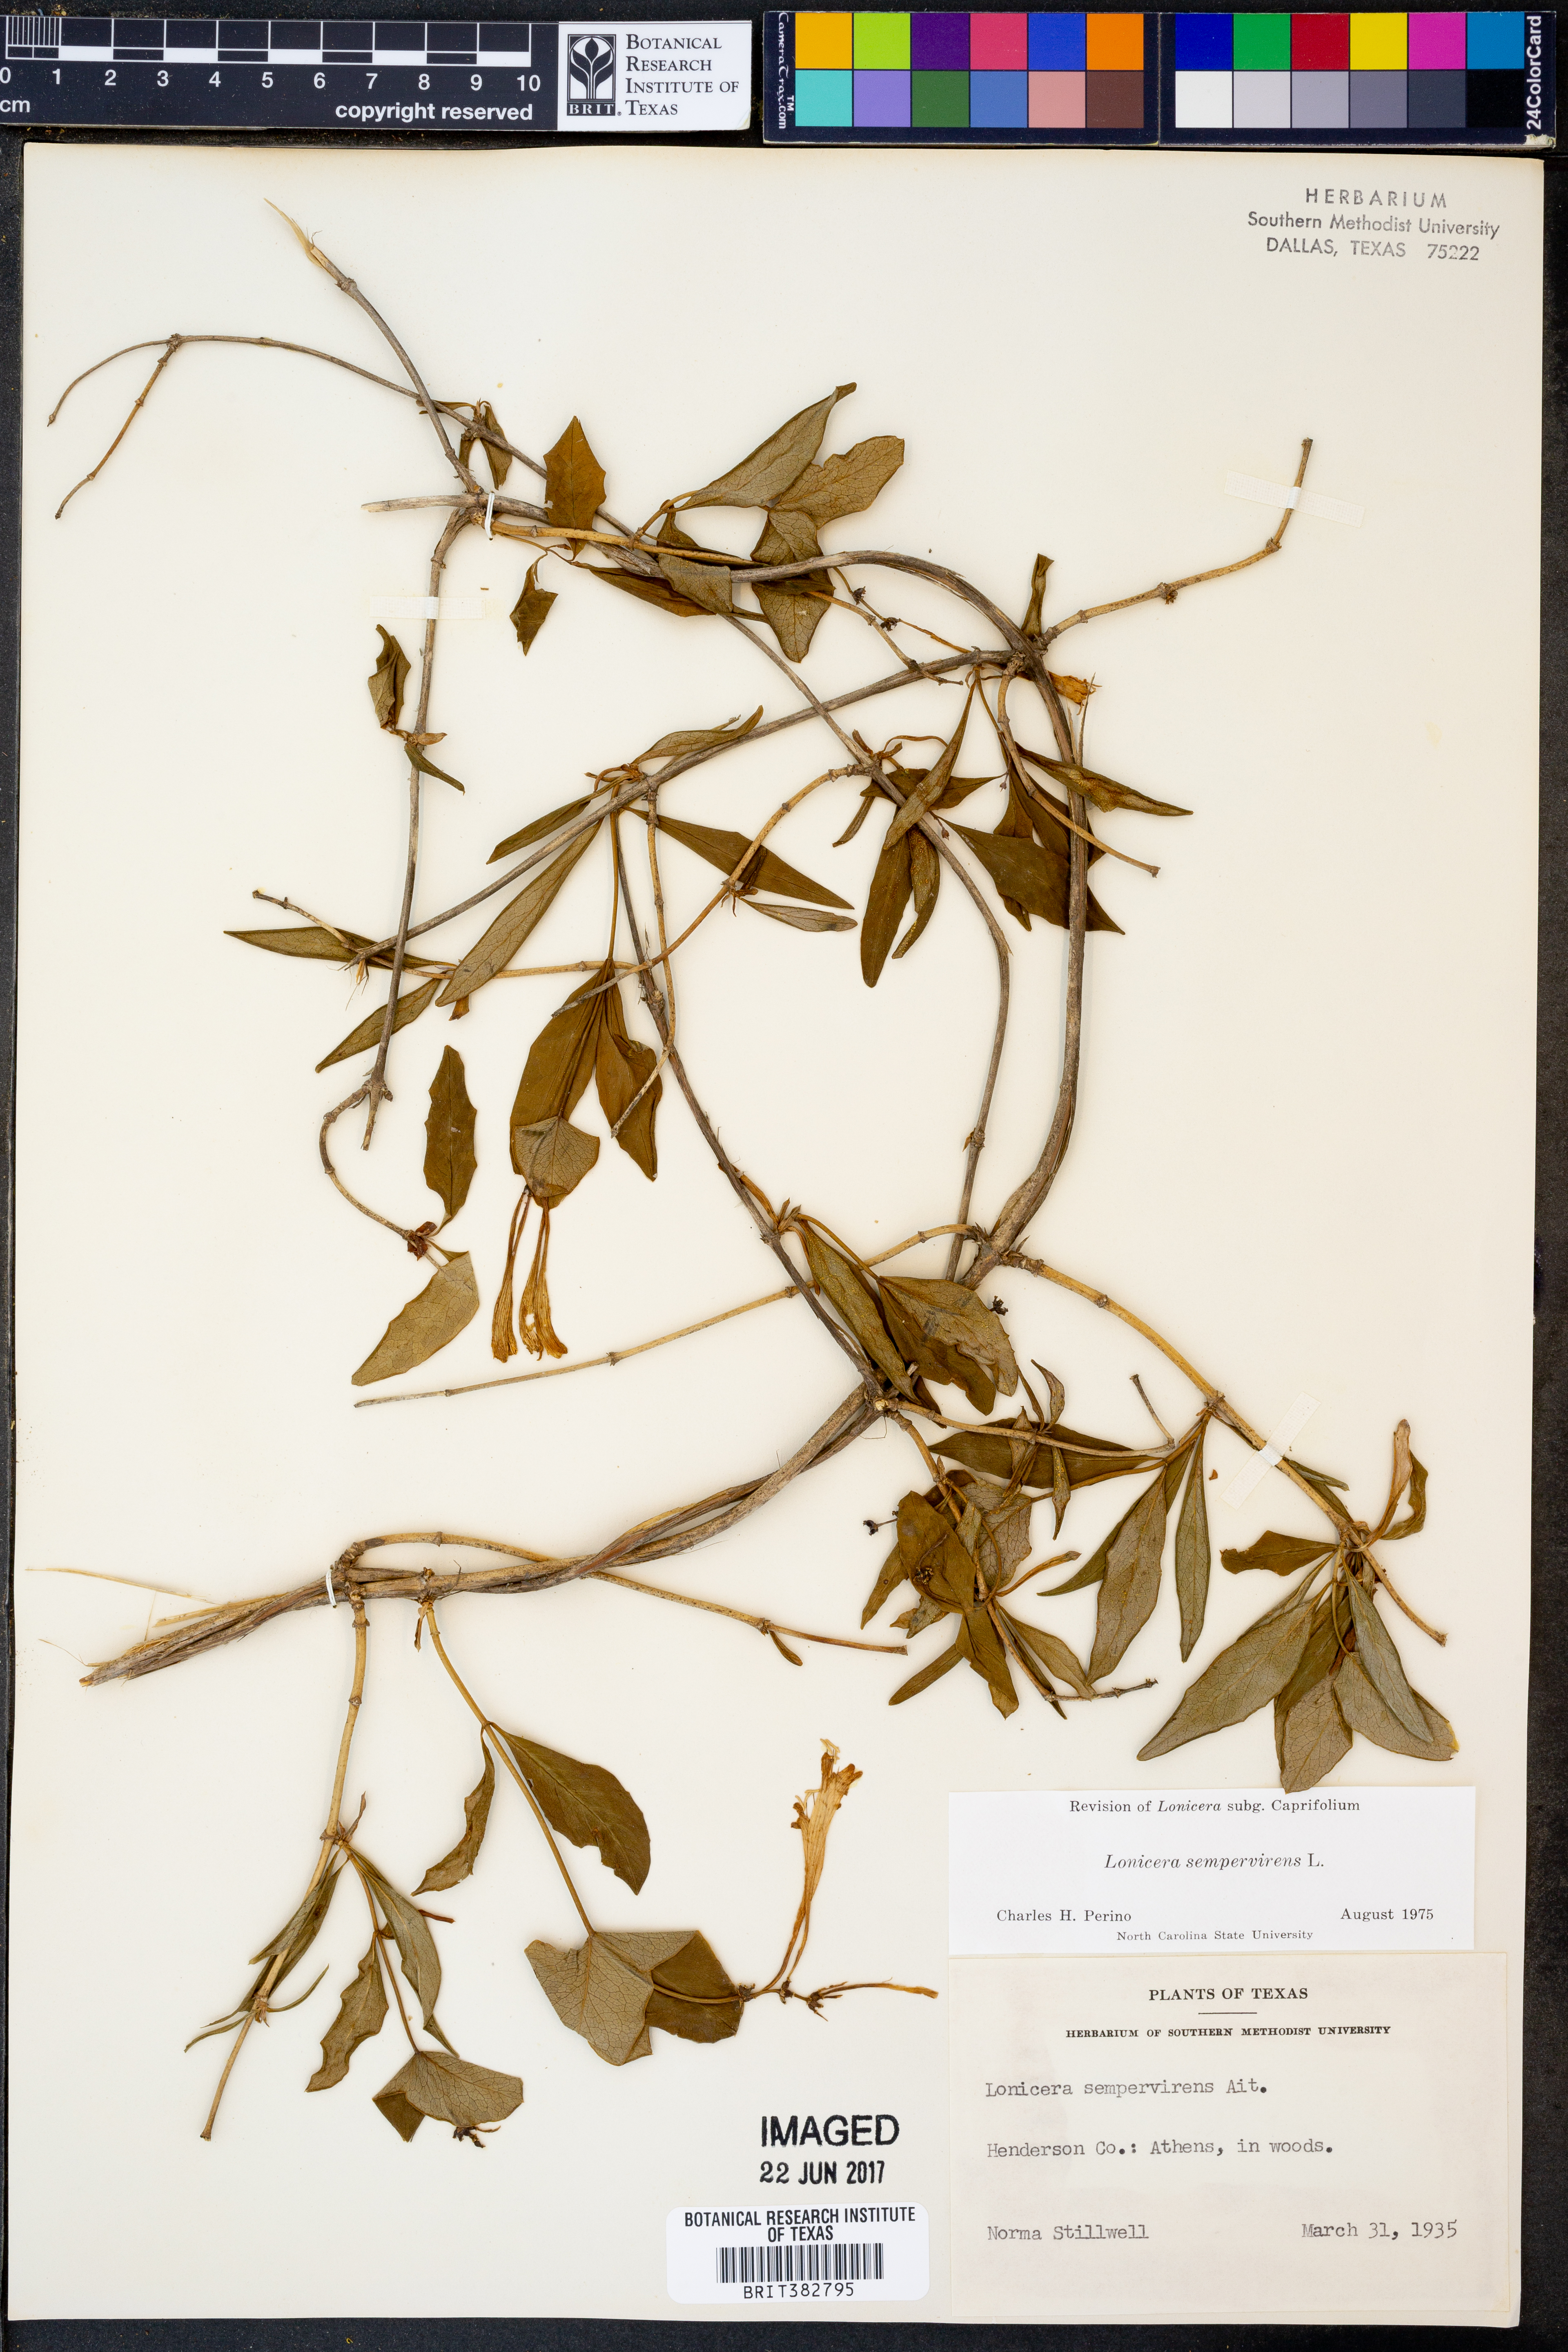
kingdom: Plantae
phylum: Tracheophyta
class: Magnoliopsida
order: Dipsacales
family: Caprifoliaceae
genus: Lonicera
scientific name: Lonicera sempervirens
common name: Coral honeysuckle
